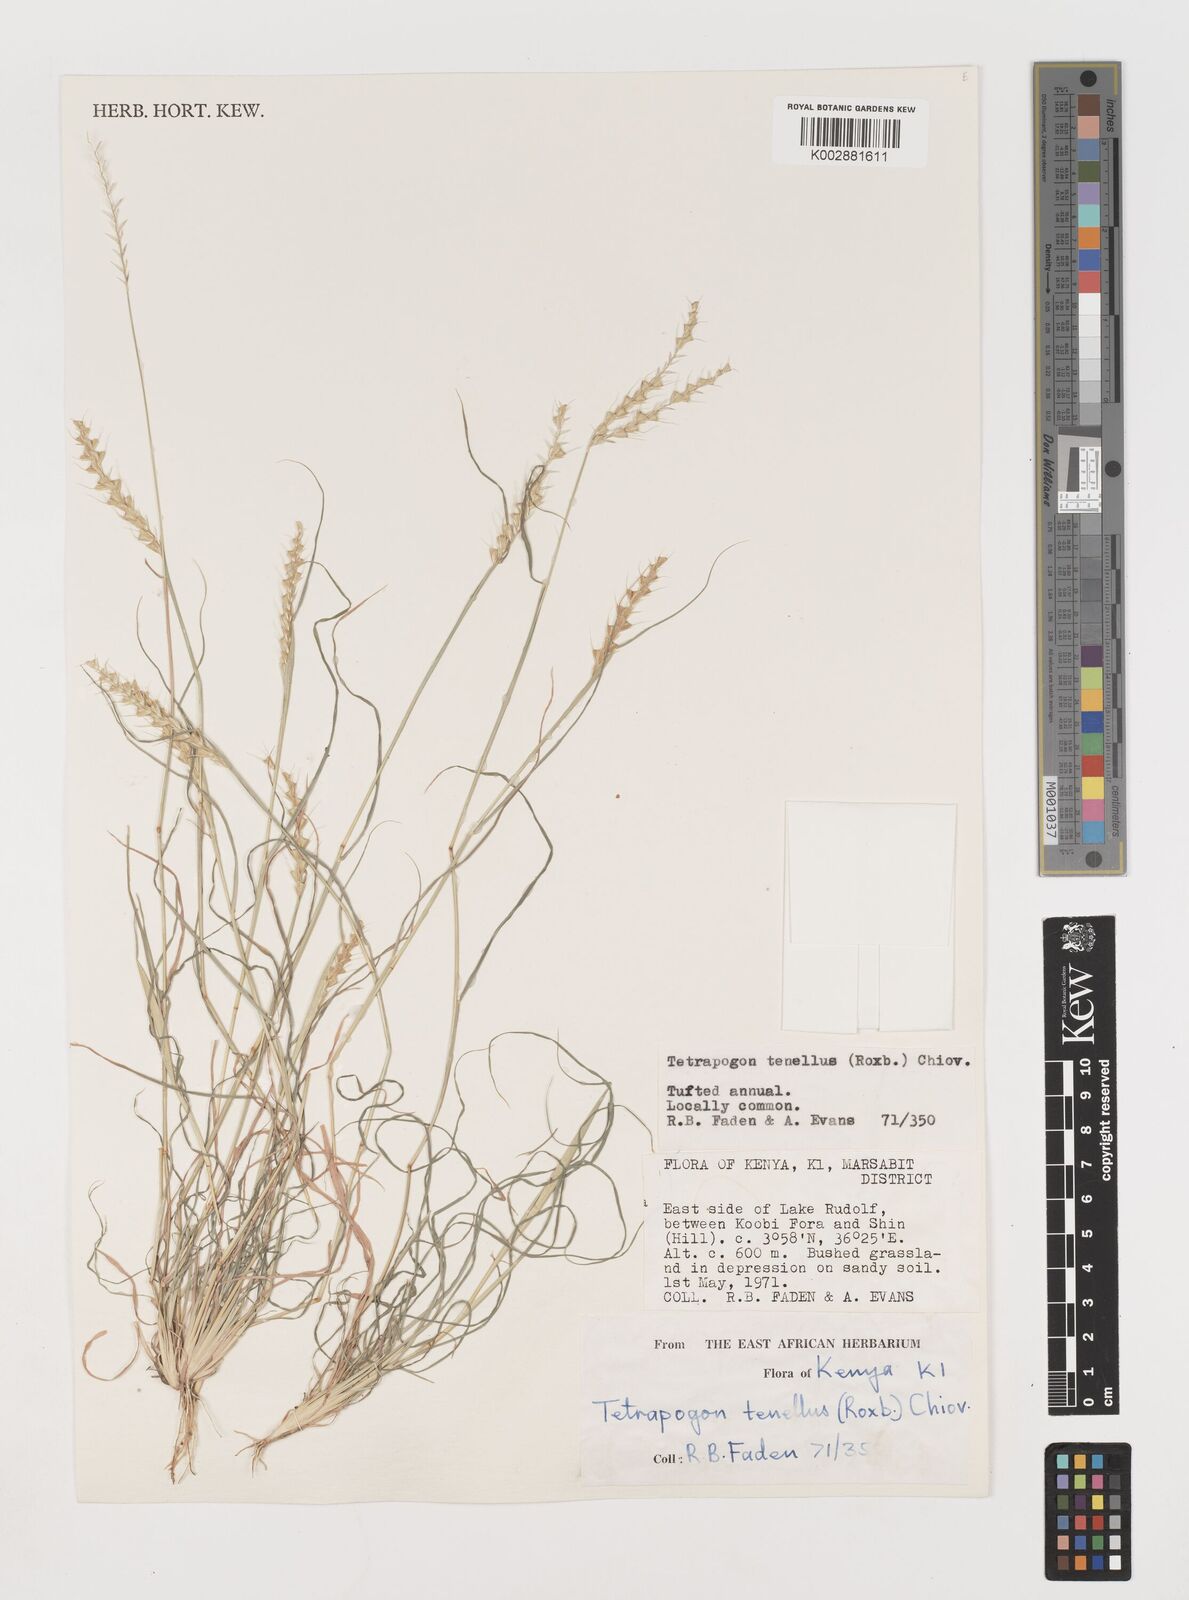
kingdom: Plantae
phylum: Tracheophyta
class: Liliopsida
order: Poales
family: Poaceae
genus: Tetrapogon
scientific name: Tetrapogon tenellus
